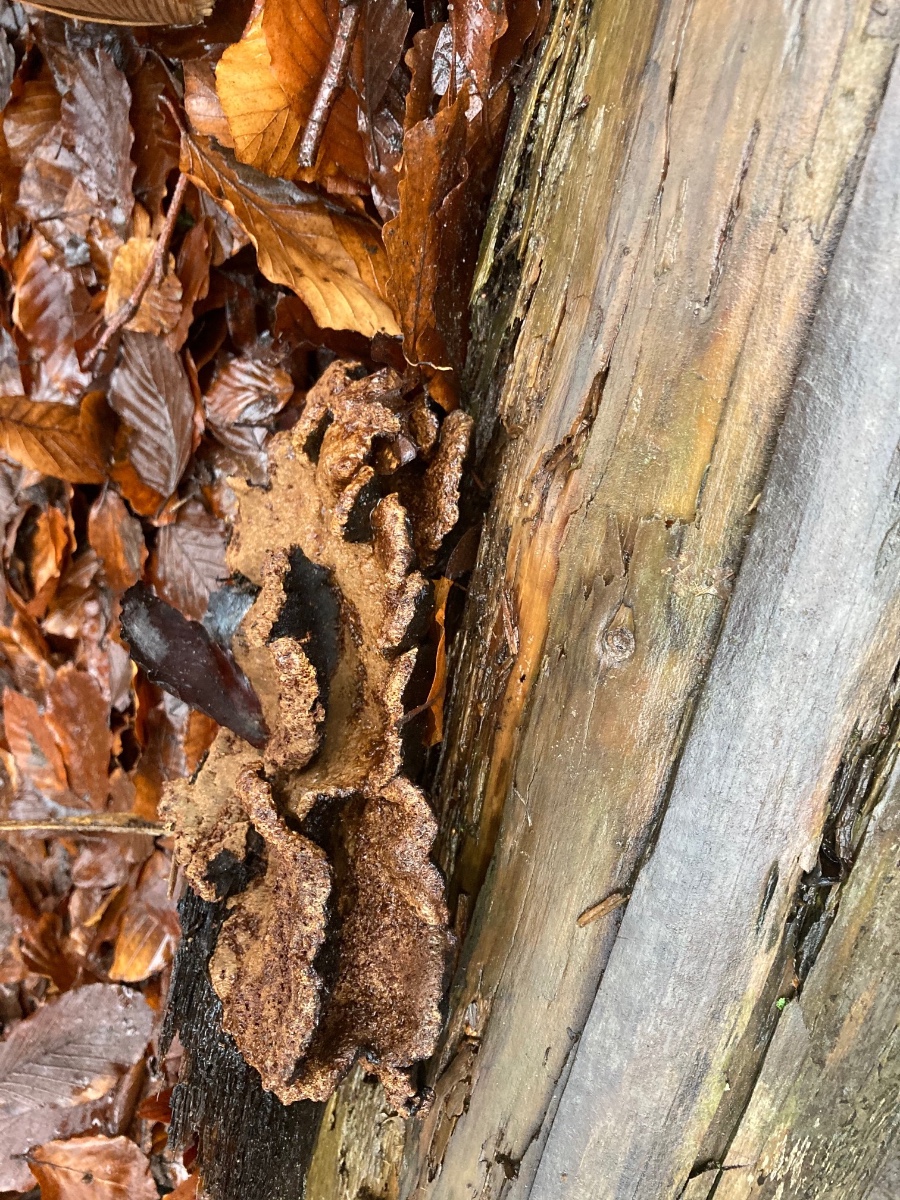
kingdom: Fungi
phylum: Basidiomycota
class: Agaricomycetes
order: Polyporales
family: Ischnodermataceae
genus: Ischnoderma
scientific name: Ischnoderma benzoinum
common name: gran-tjæreporesvamp
